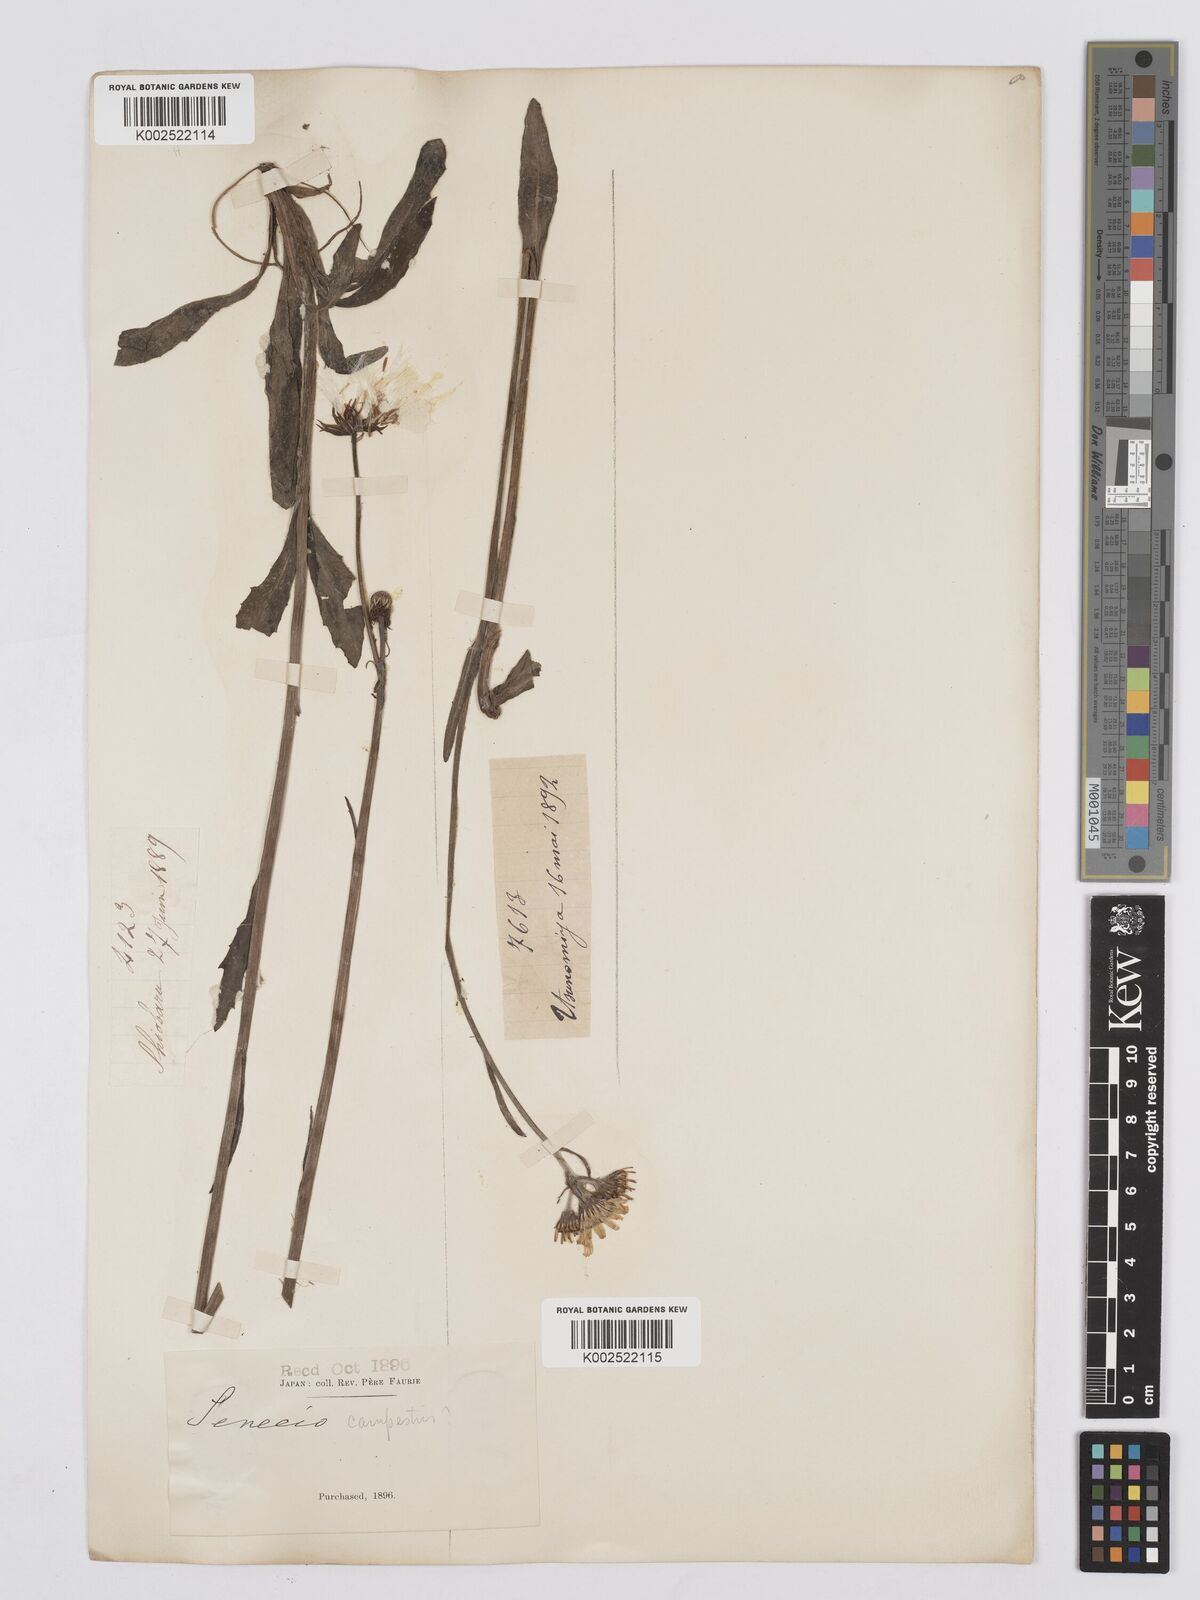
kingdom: Plantae
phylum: Tracheophyta
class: Magnoliopsida
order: Asterales
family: Asteraceae
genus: Tephroseris
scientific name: Tephroseris kirilowii
